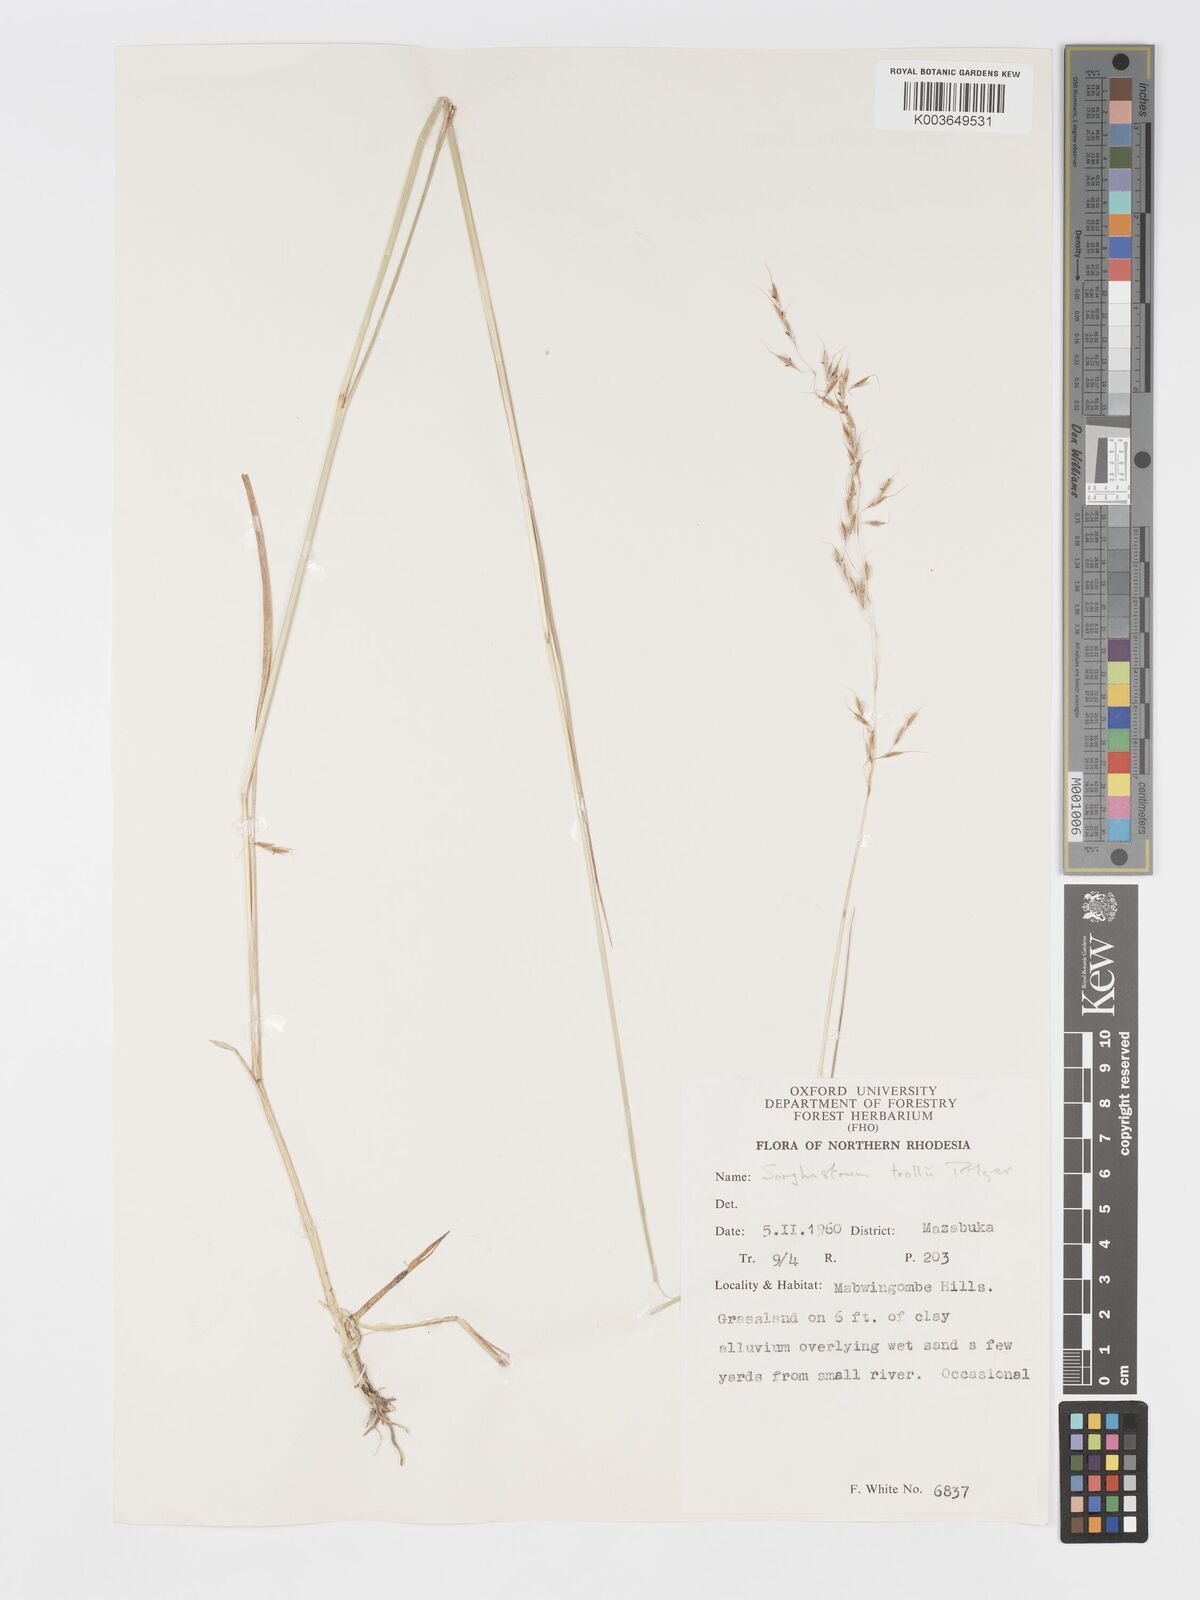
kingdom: Plantae
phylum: Tracheophyta
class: Liliopsida
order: Poales
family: Poaceae
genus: Sorghastrum
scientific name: Sorghastrum nudipes
